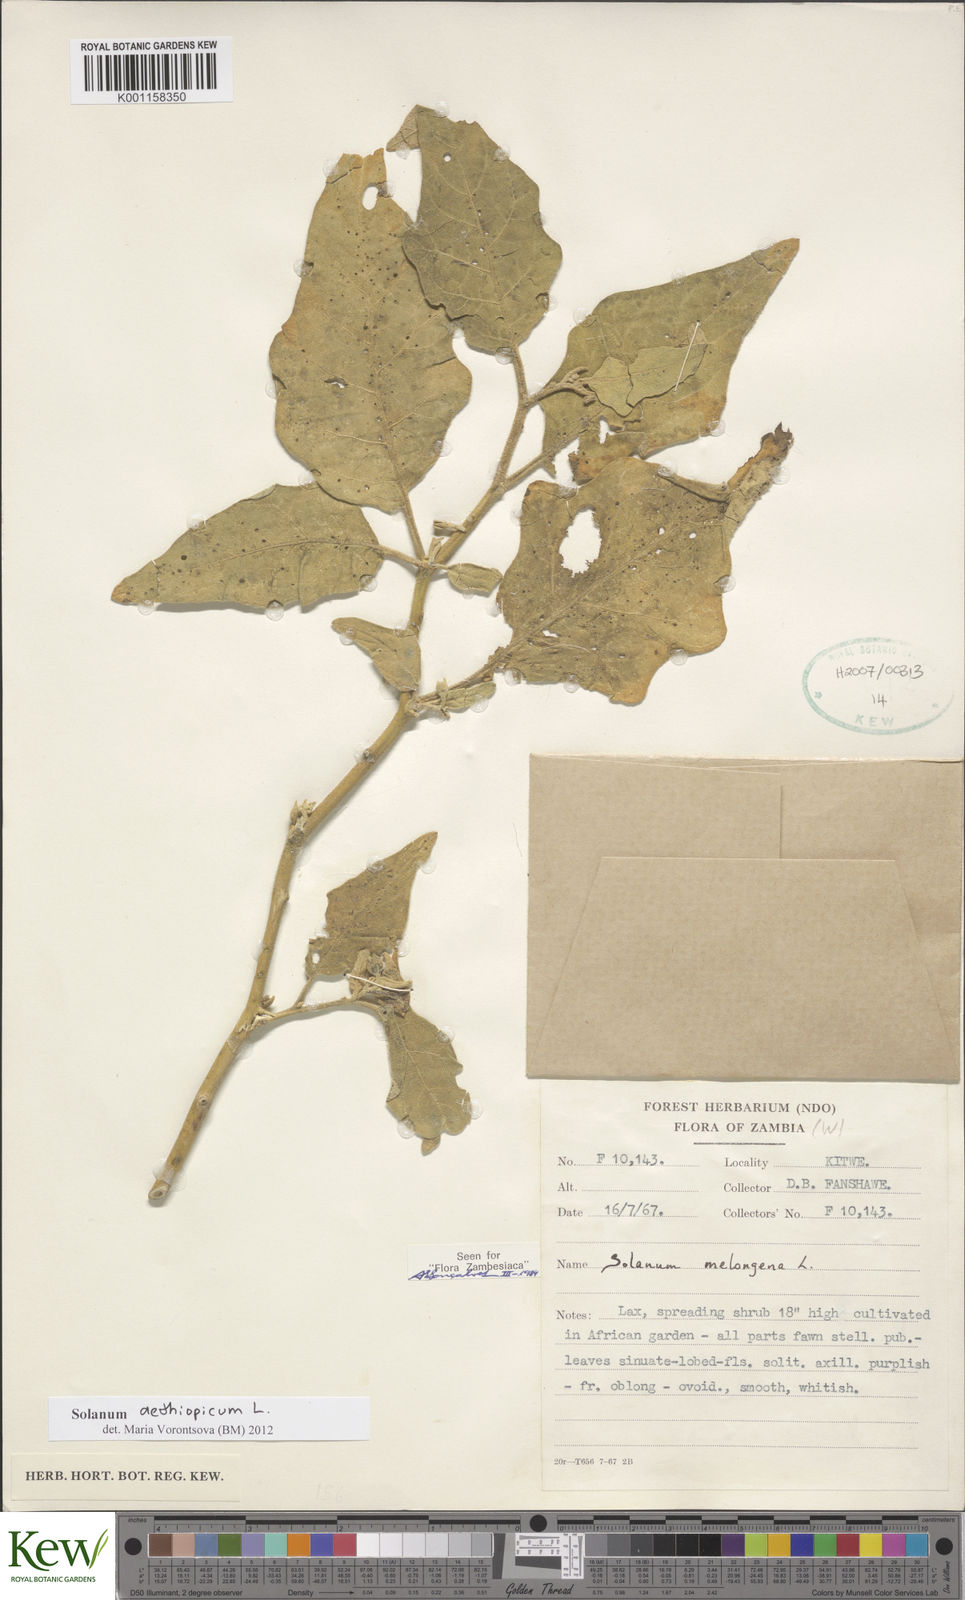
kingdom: Plantae
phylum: Tracheophyta
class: Magnoliopsida
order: Solanales
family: Solanaceae
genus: Solanum
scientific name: Solanum aethiopicum
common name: Gilo
